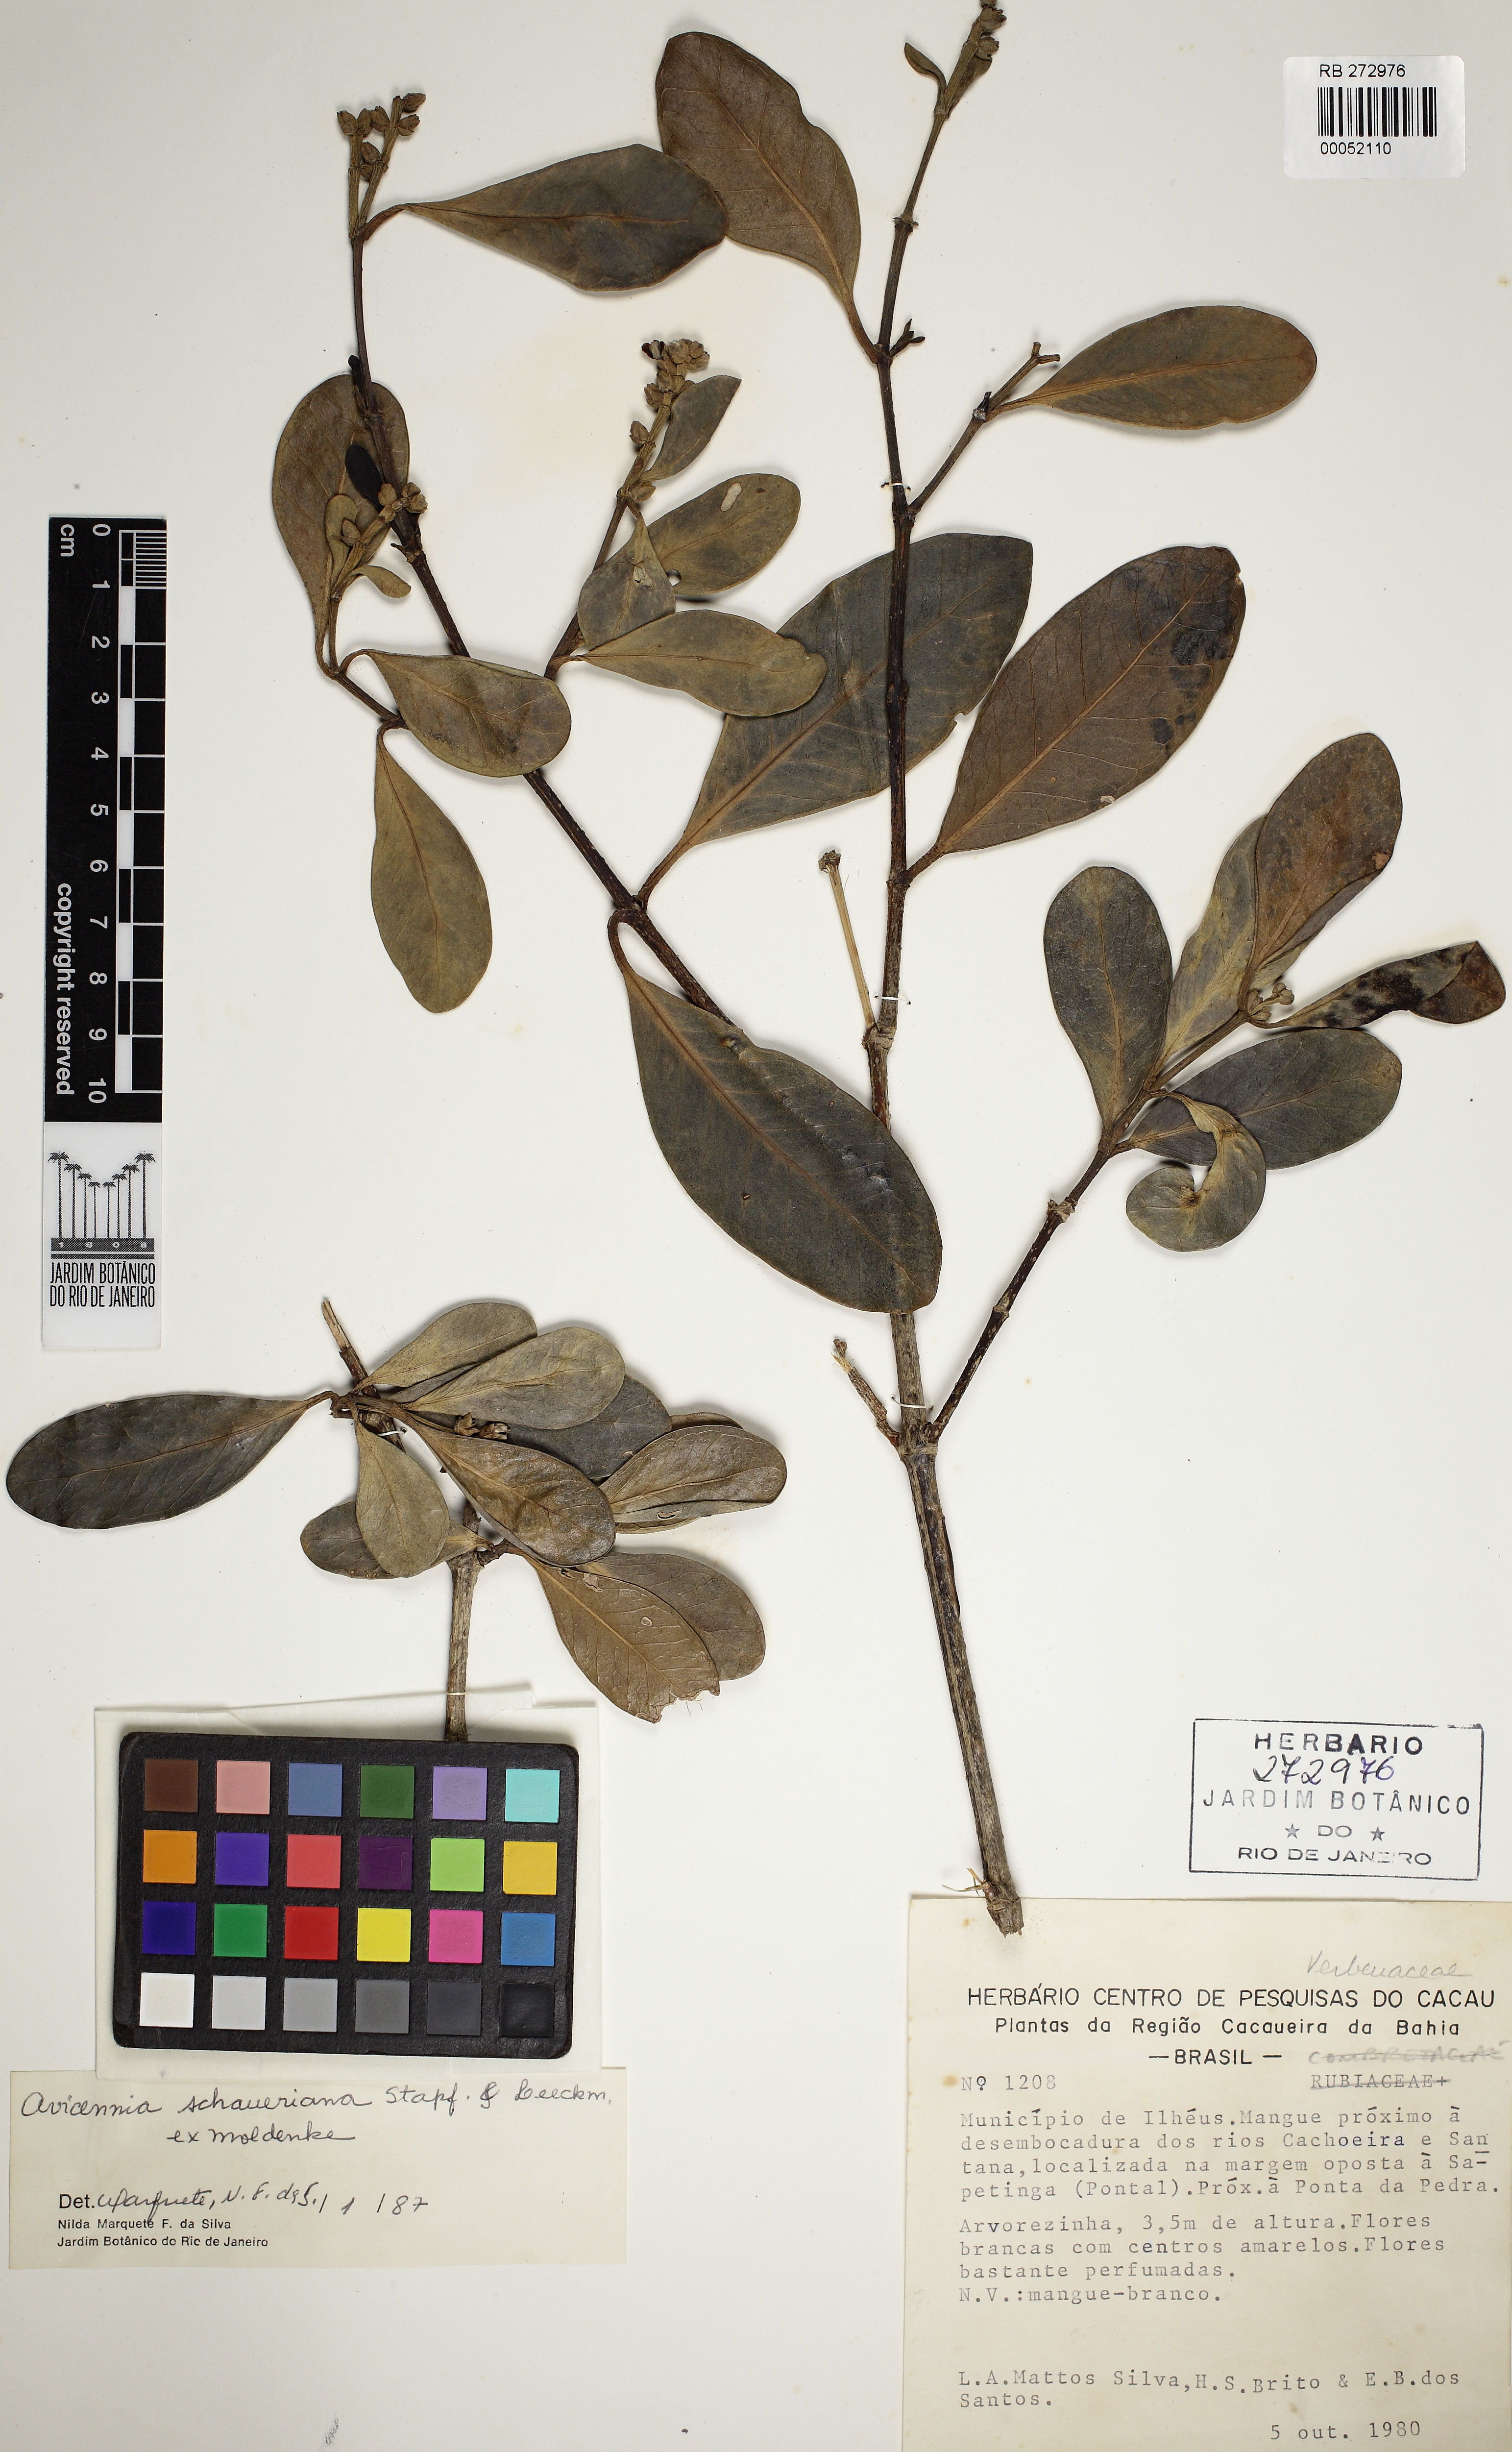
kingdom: Plantae
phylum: Tracheophyta
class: Magnoliopsida
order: Lamiales
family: Acanthaceae
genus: Avicennia
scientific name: Avicennia schaueriana
